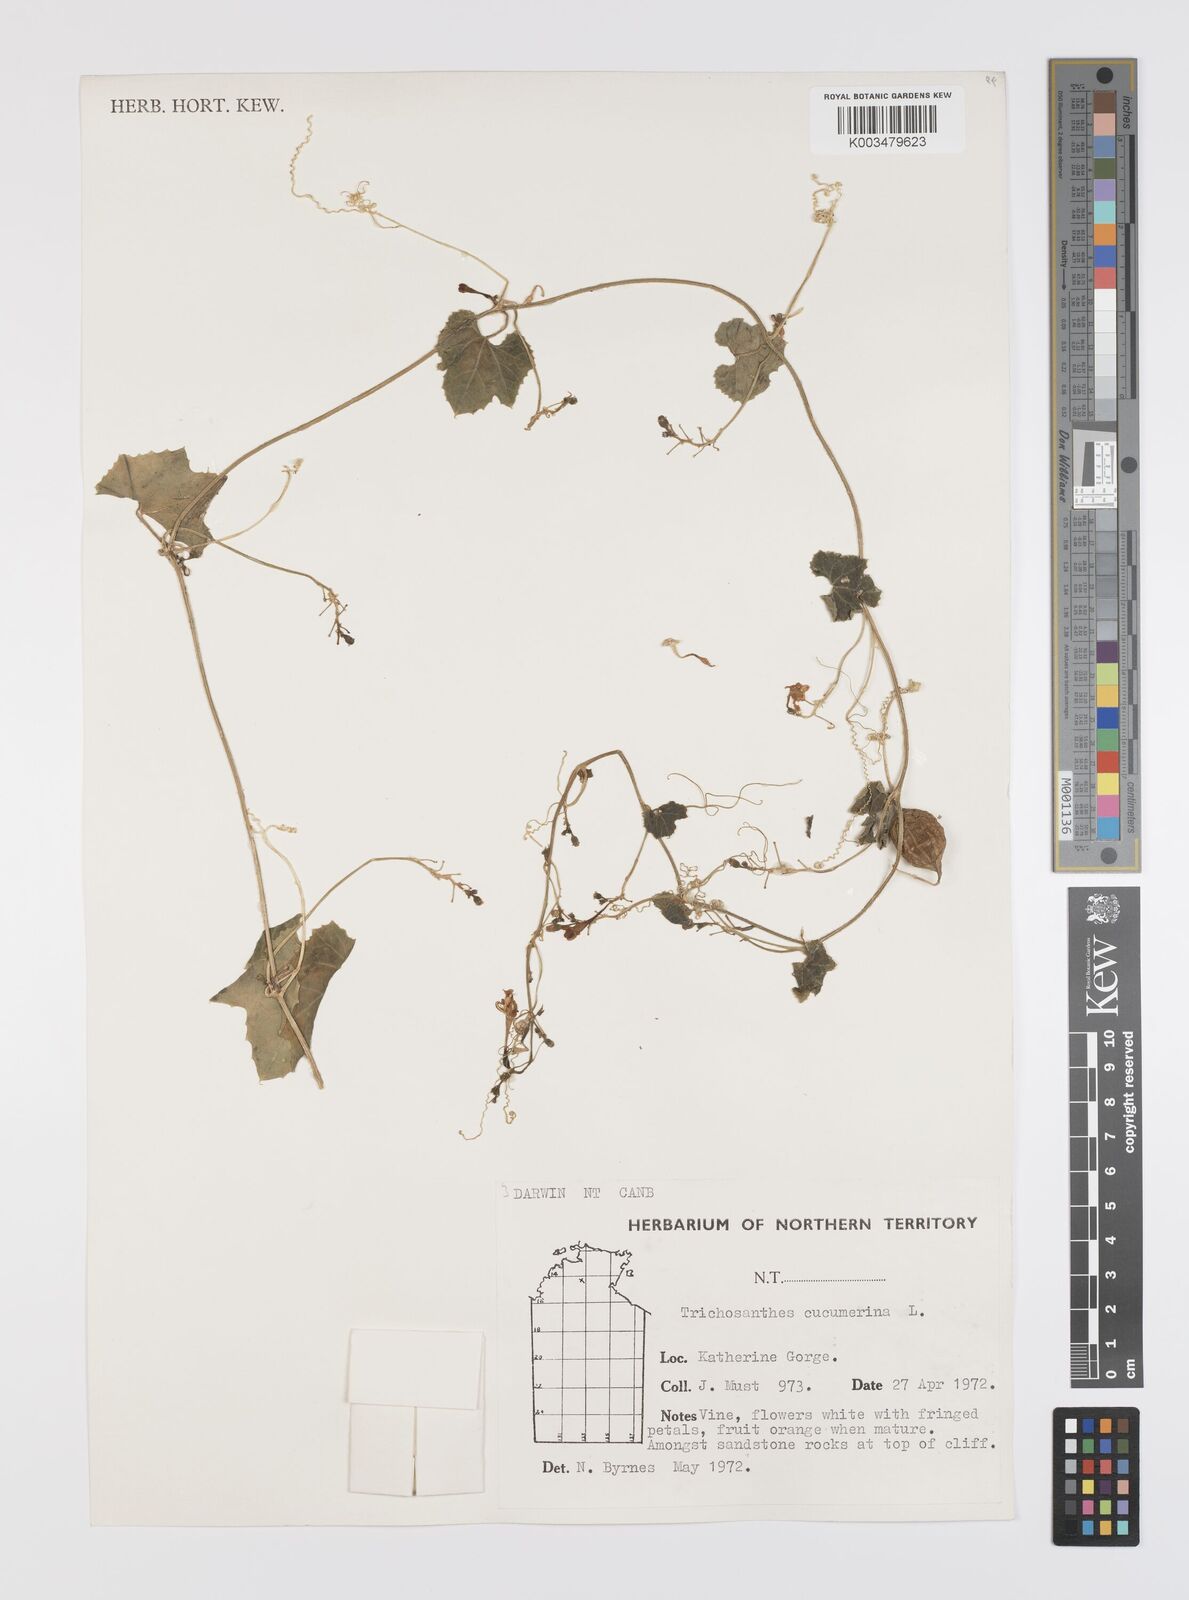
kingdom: Plantae
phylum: Tracheophyta
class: Magnoliopsida
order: Cucurbitales
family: Cucurbitaceae
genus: Trichosanthes
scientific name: Trichosanthes cucumerina
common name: Snakegourd
